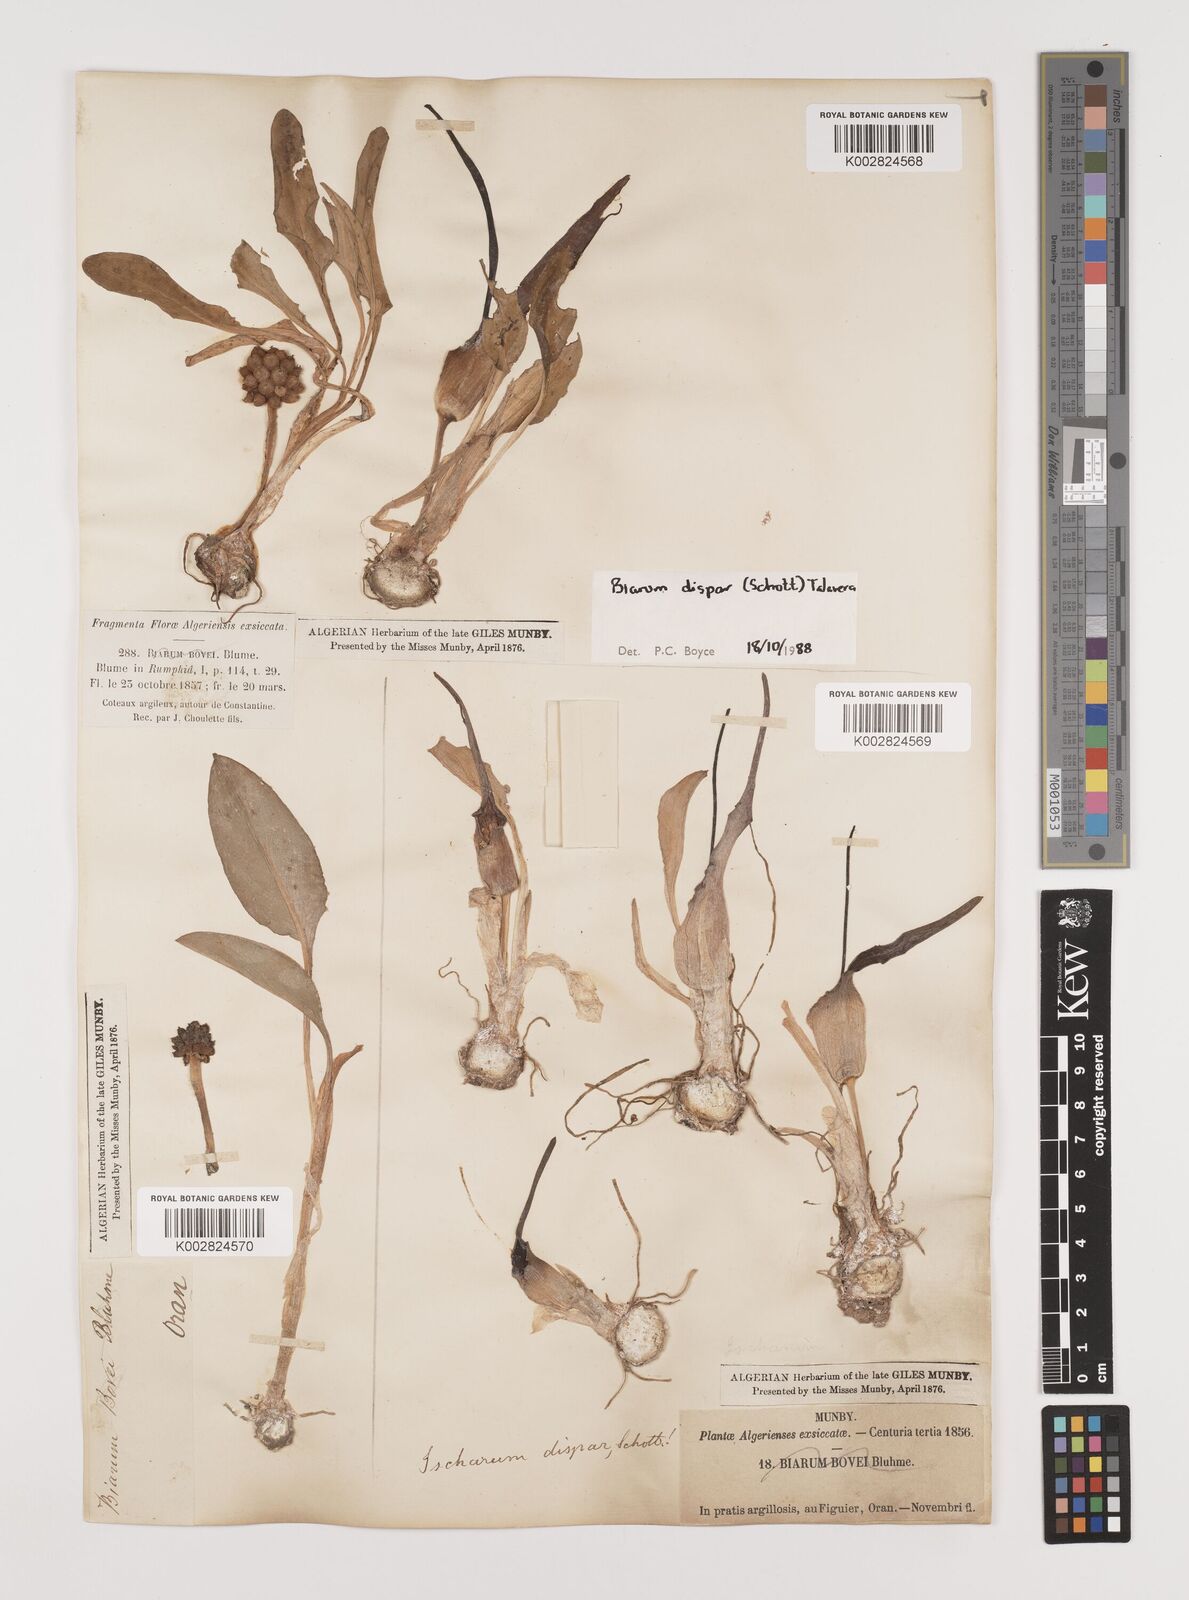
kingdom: Plantae
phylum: Tracheophyta
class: Liliopsida
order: Alismatales
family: Araceae
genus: Biarum
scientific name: Biarum dispar
